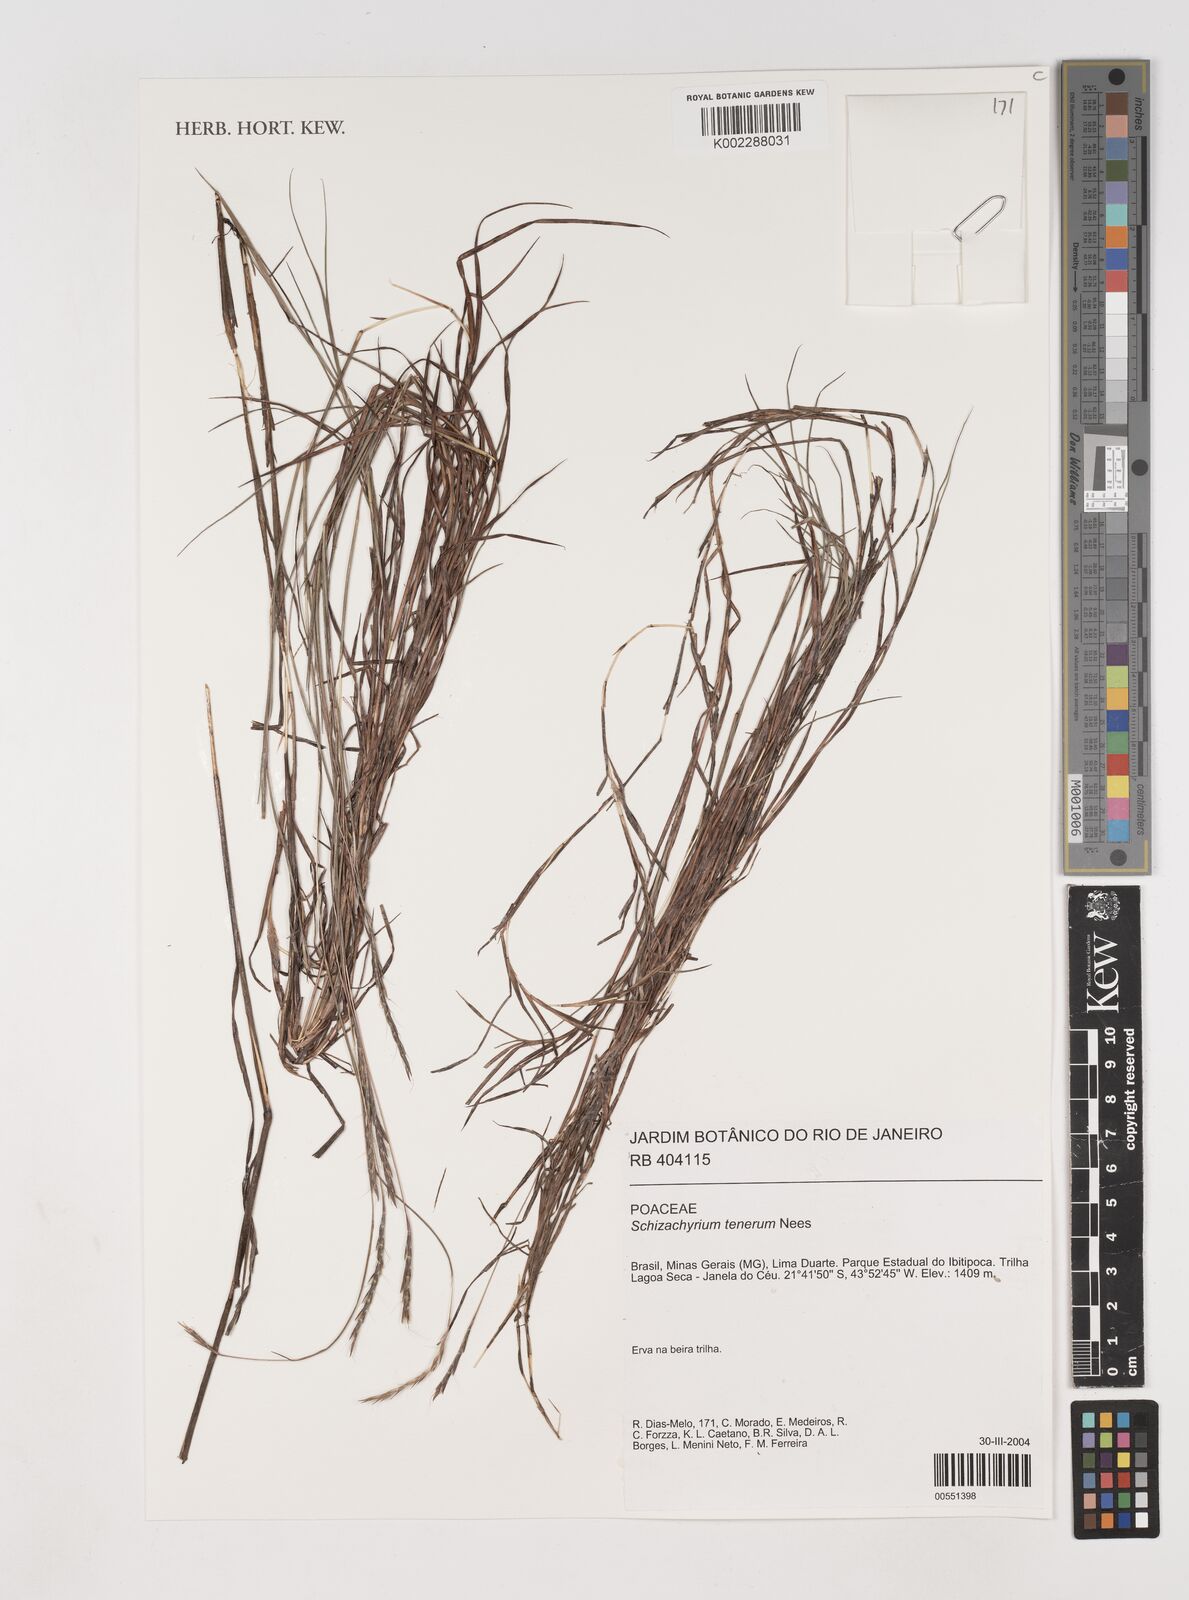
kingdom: Plantae
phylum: Tracheophyta
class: Liliopsida
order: Poales
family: Poaceae
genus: Andropogon
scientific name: Andropogon tener
